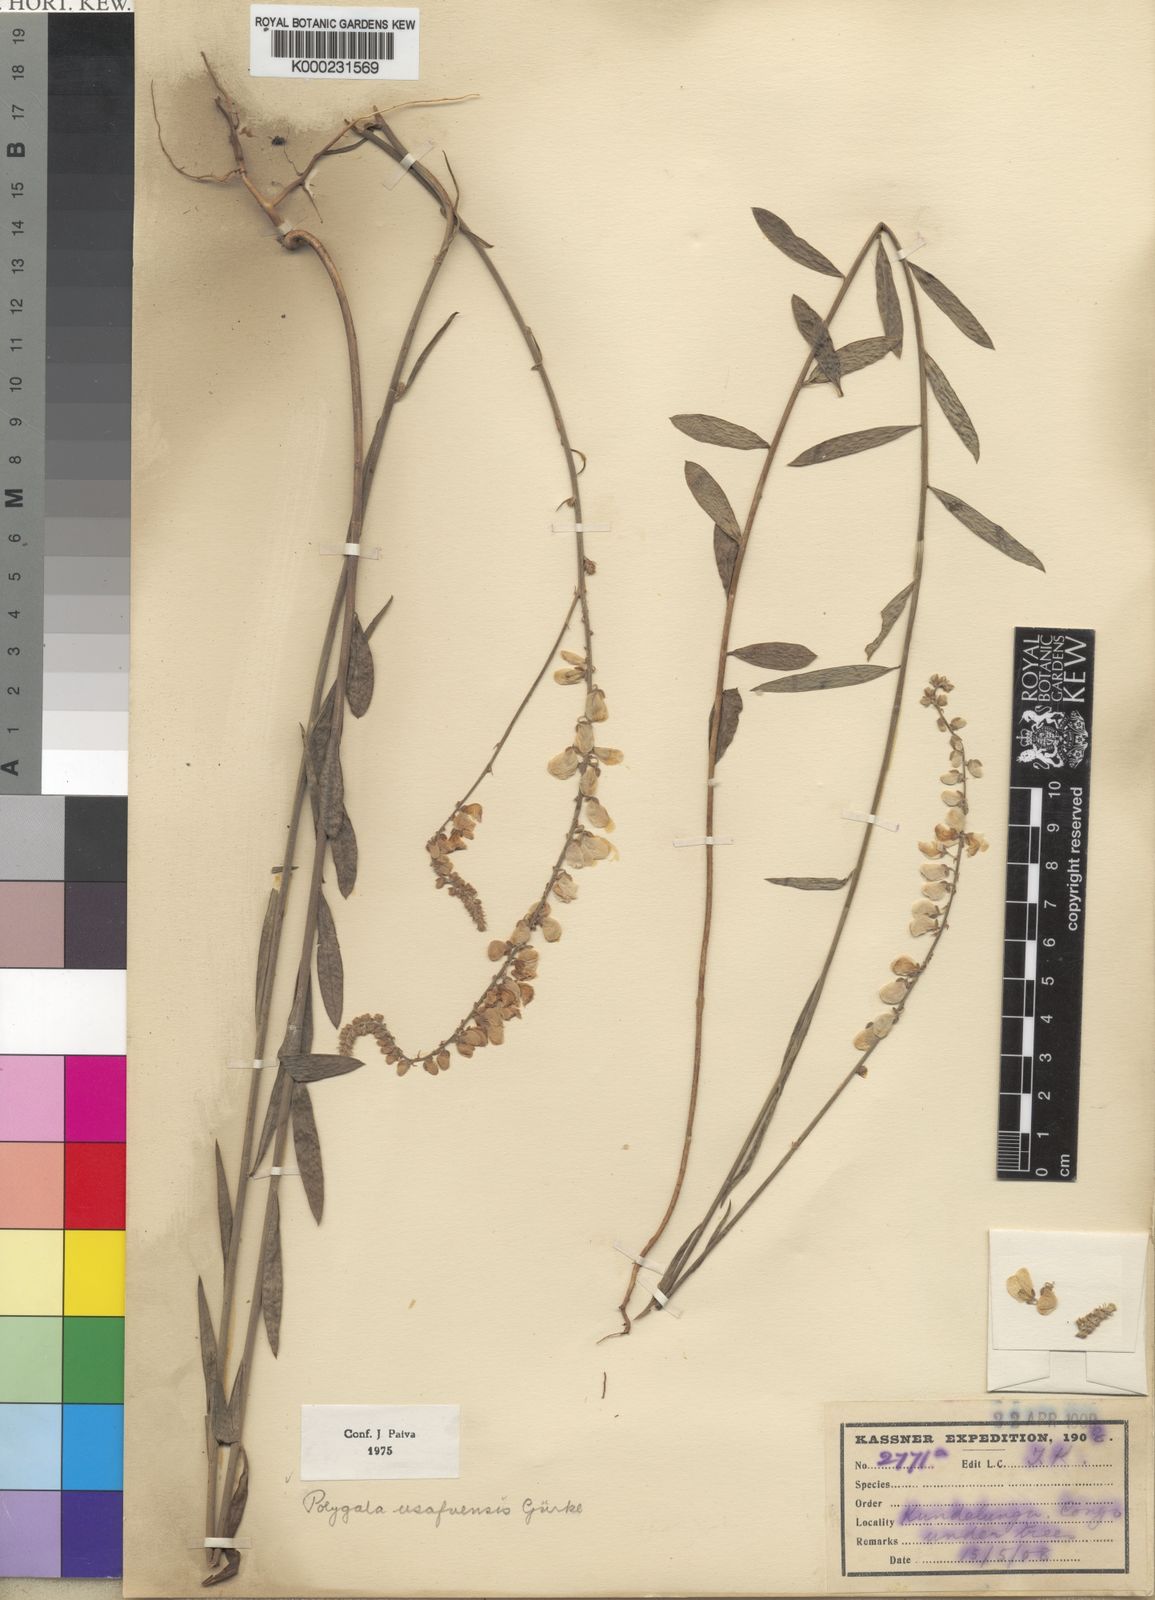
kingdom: Plantae
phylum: Tracheophyta
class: Magnoliopsida
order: Fabales
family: Polygalaceae
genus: Polygala
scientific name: Polygala
